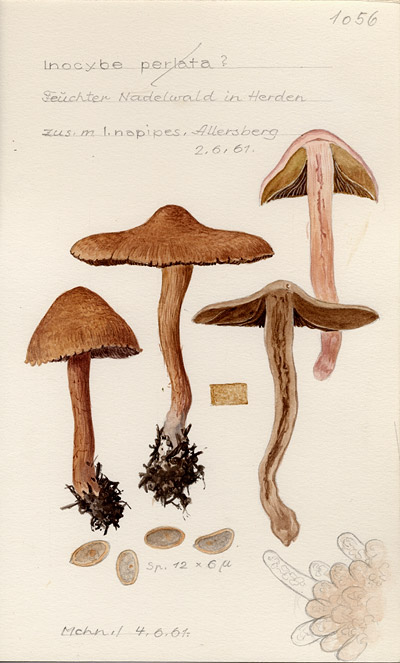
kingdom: Fungi
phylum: Basidiomycota
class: Agaricomycetes
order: Agaricales
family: Inocybaceae
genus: Inosperma
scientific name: Inosperma bongardii
